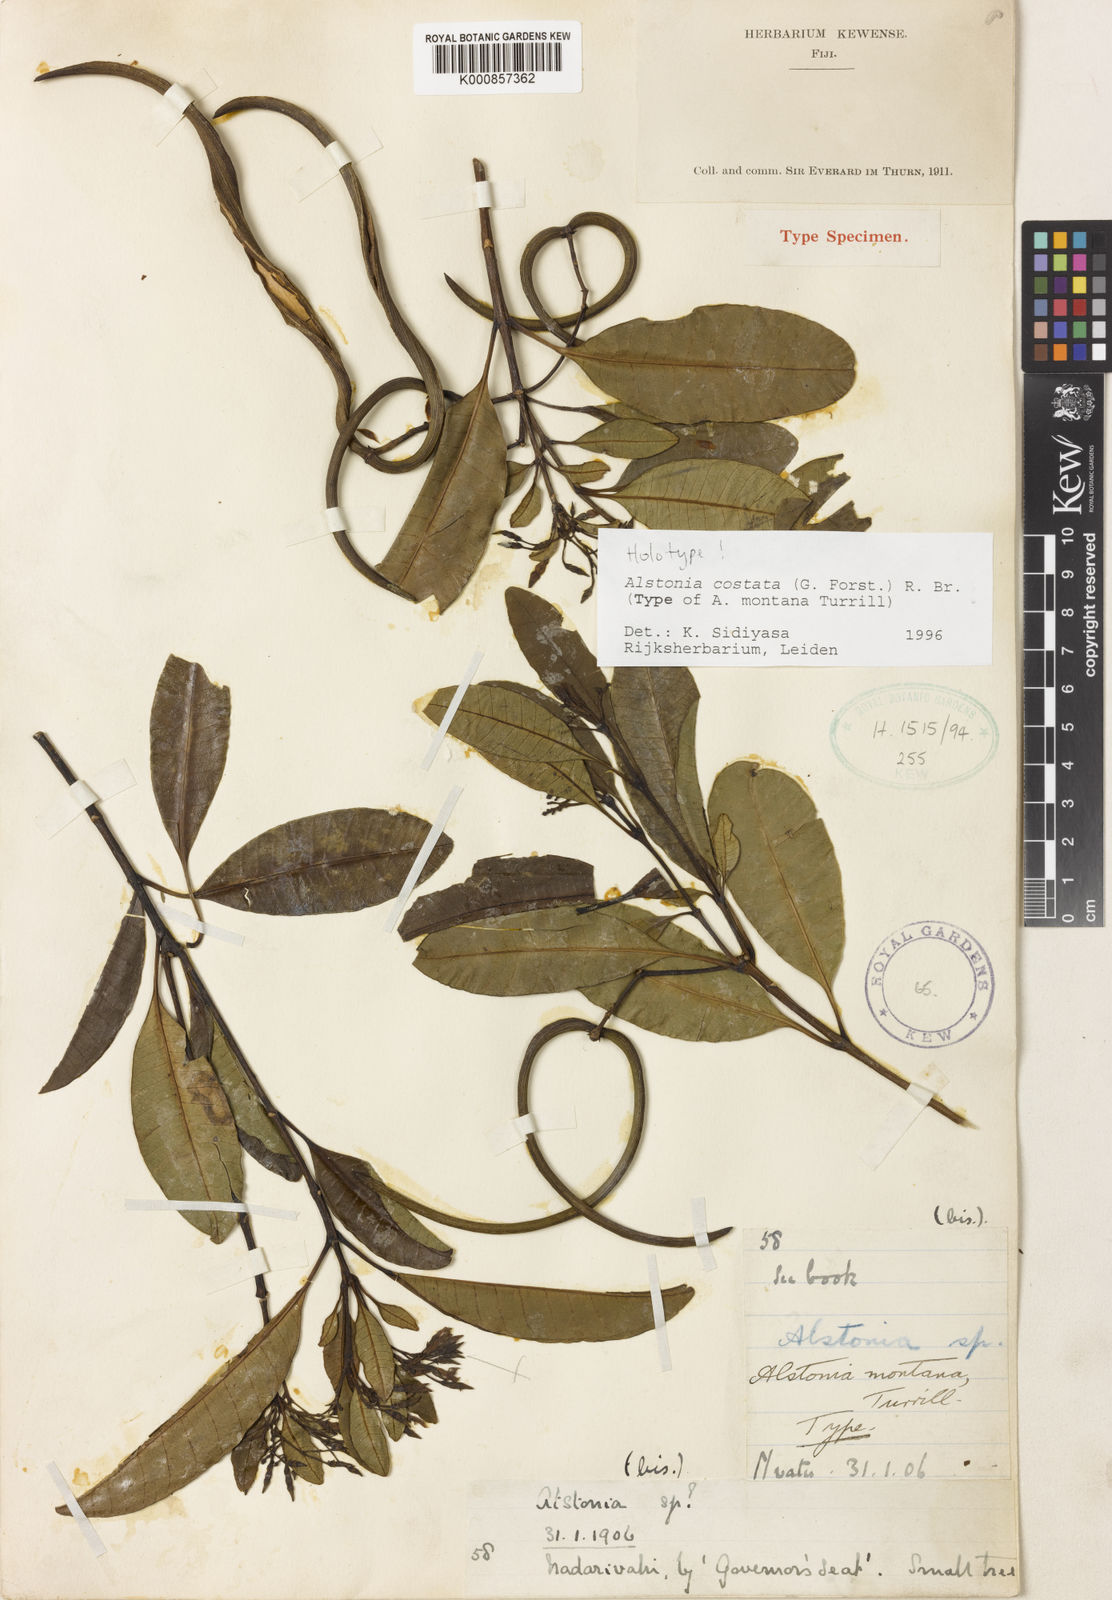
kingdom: Plantae
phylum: Tracheophyta
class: Magnoliopsida
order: Gentianales
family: Apocynaceae
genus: Alstonia
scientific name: Alstonia costata
